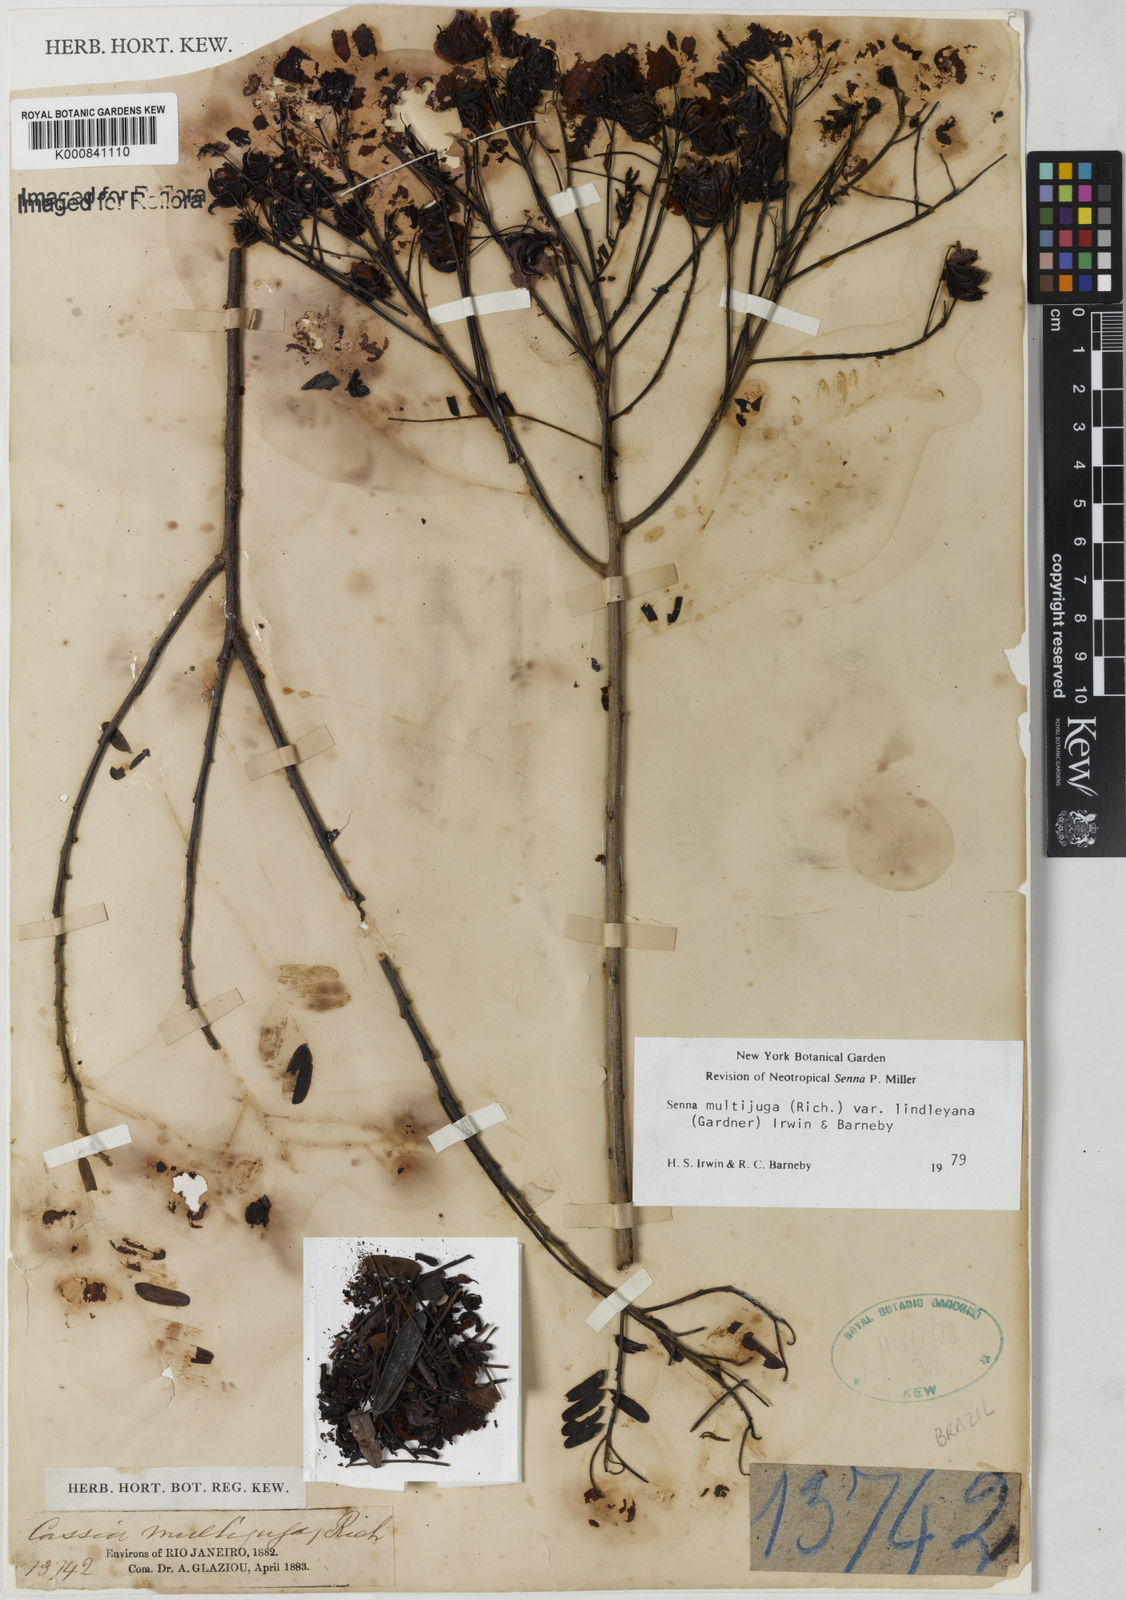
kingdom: Plantae
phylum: Tracheophyta
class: Magnoliopsida
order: Fabales
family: Fabaceae
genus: Senna
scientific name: Senna multijuga
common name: False sicklepod
